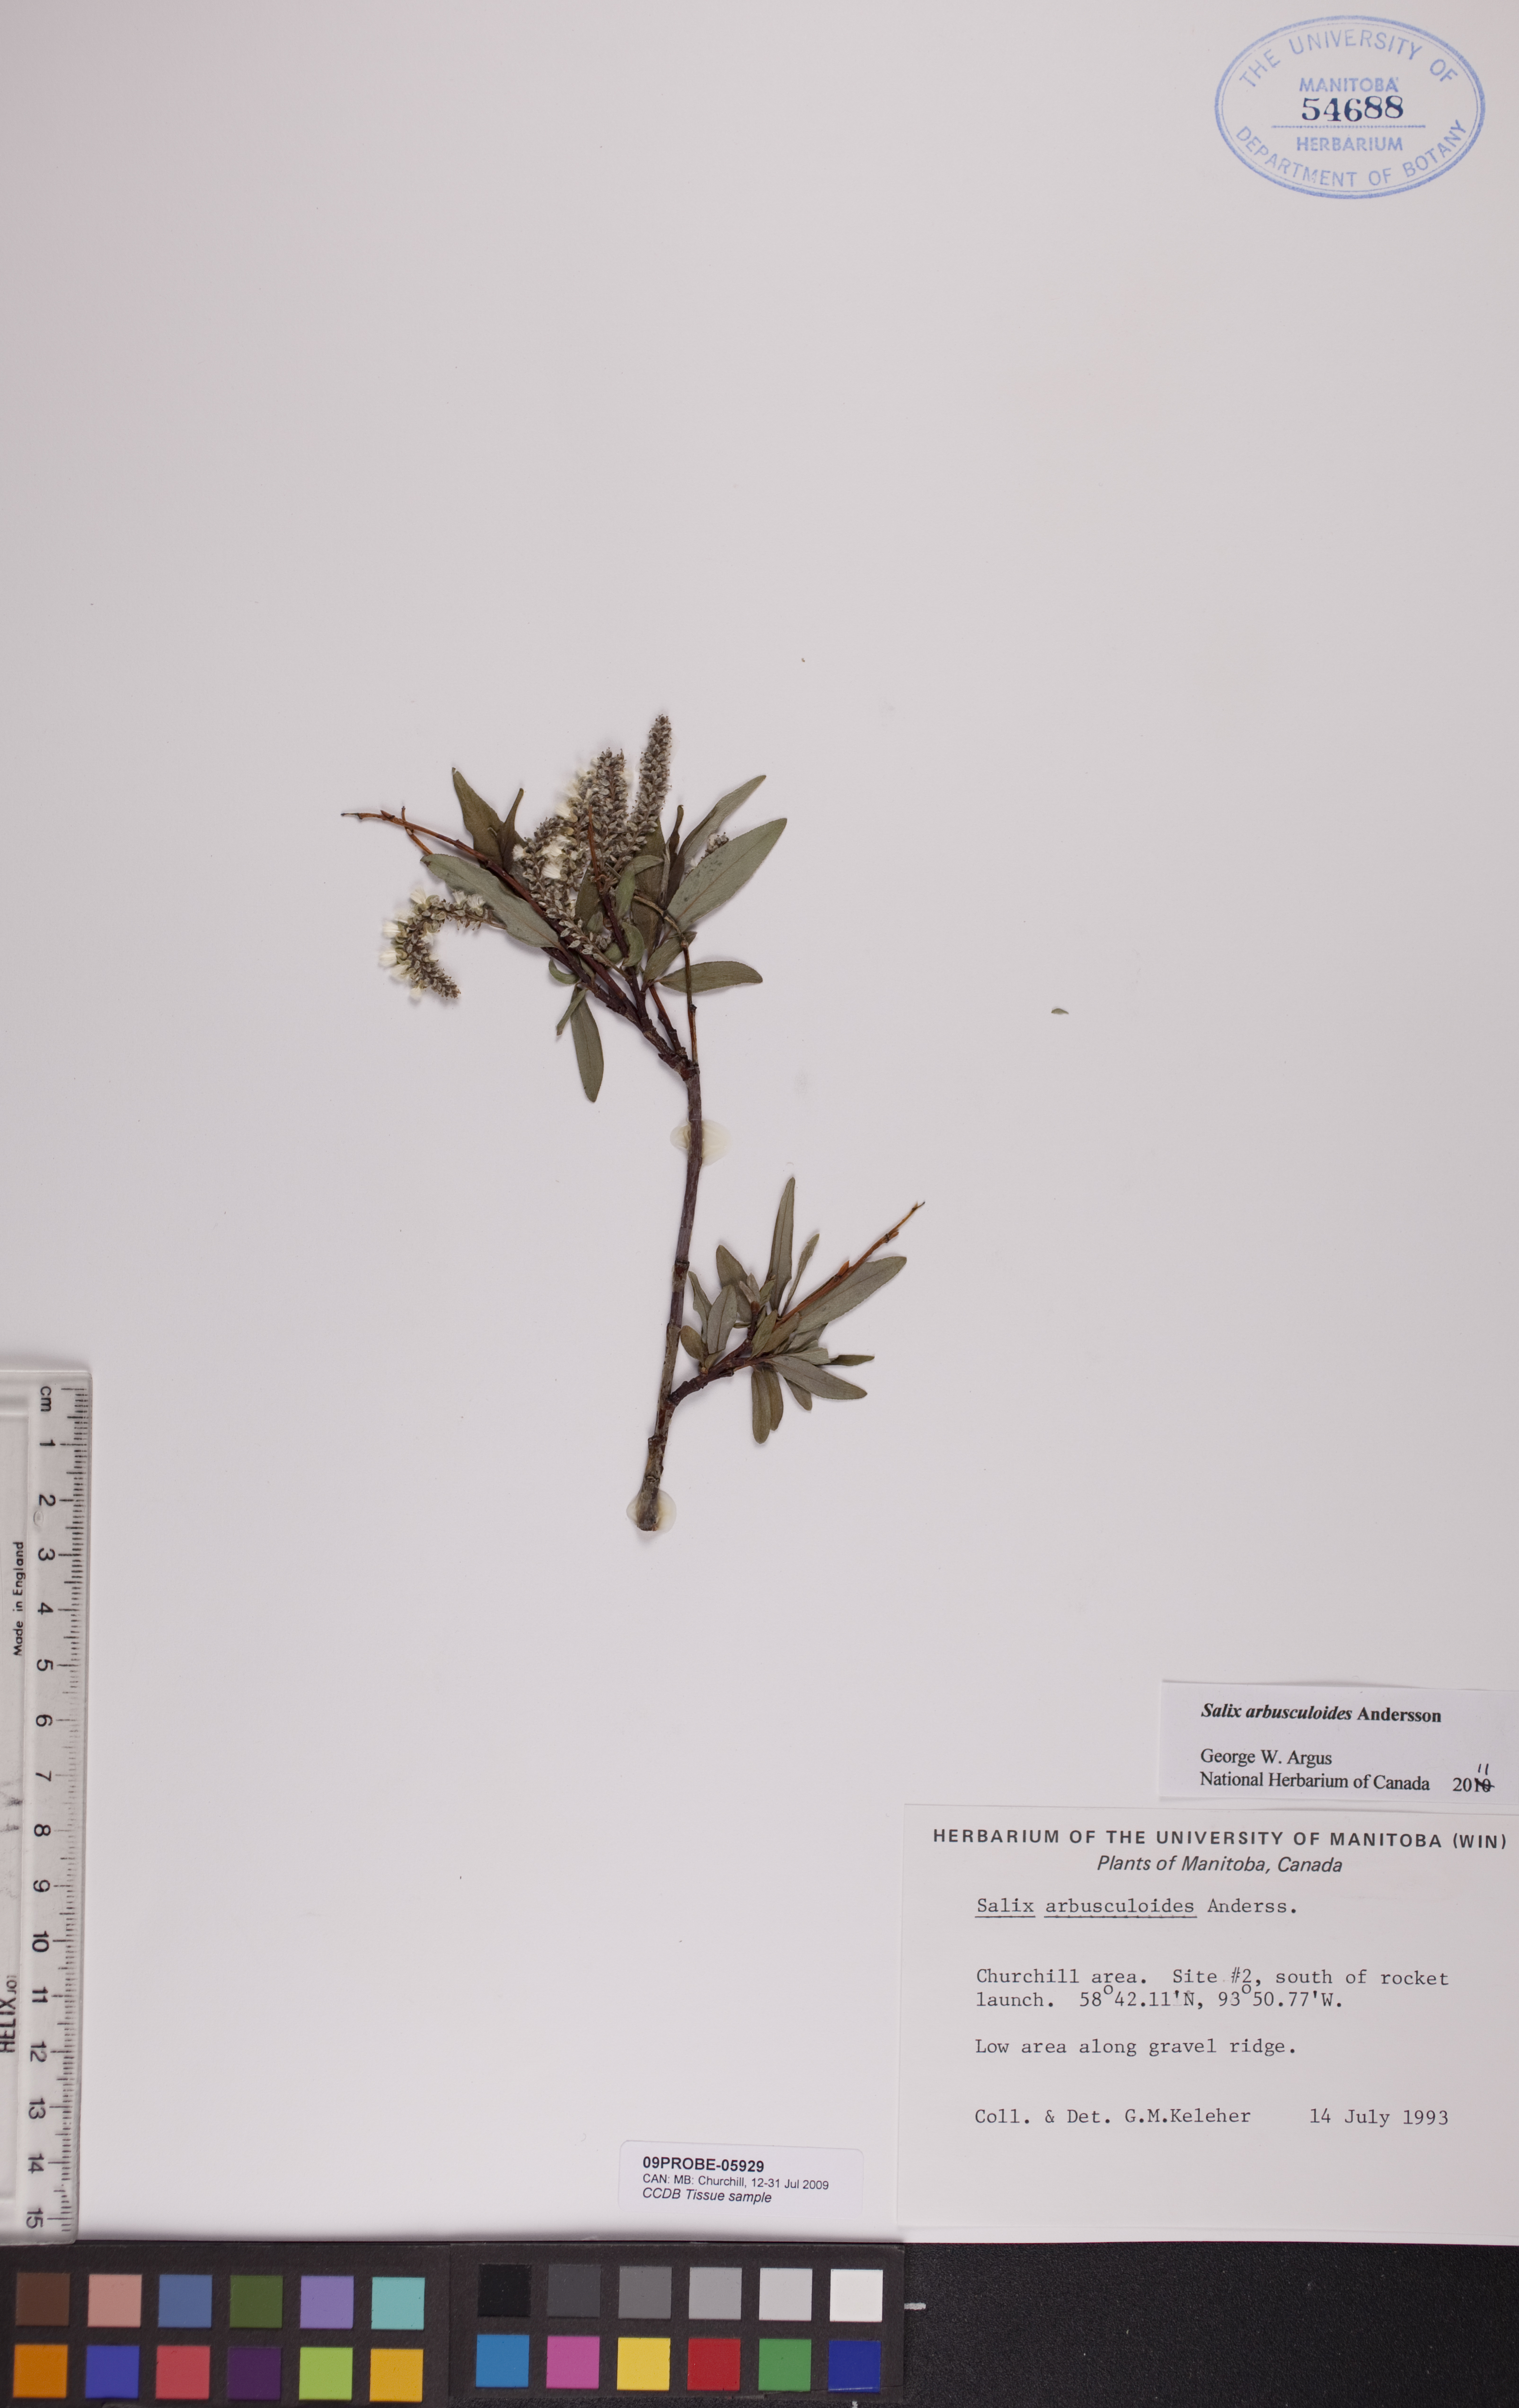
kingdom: Plantae
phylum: Tracheophyta
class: Magnoliopsida
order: Malpighiales
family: Salicaceae
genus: Salix
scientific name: Salix arbusculoides
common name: Little-tree willow
